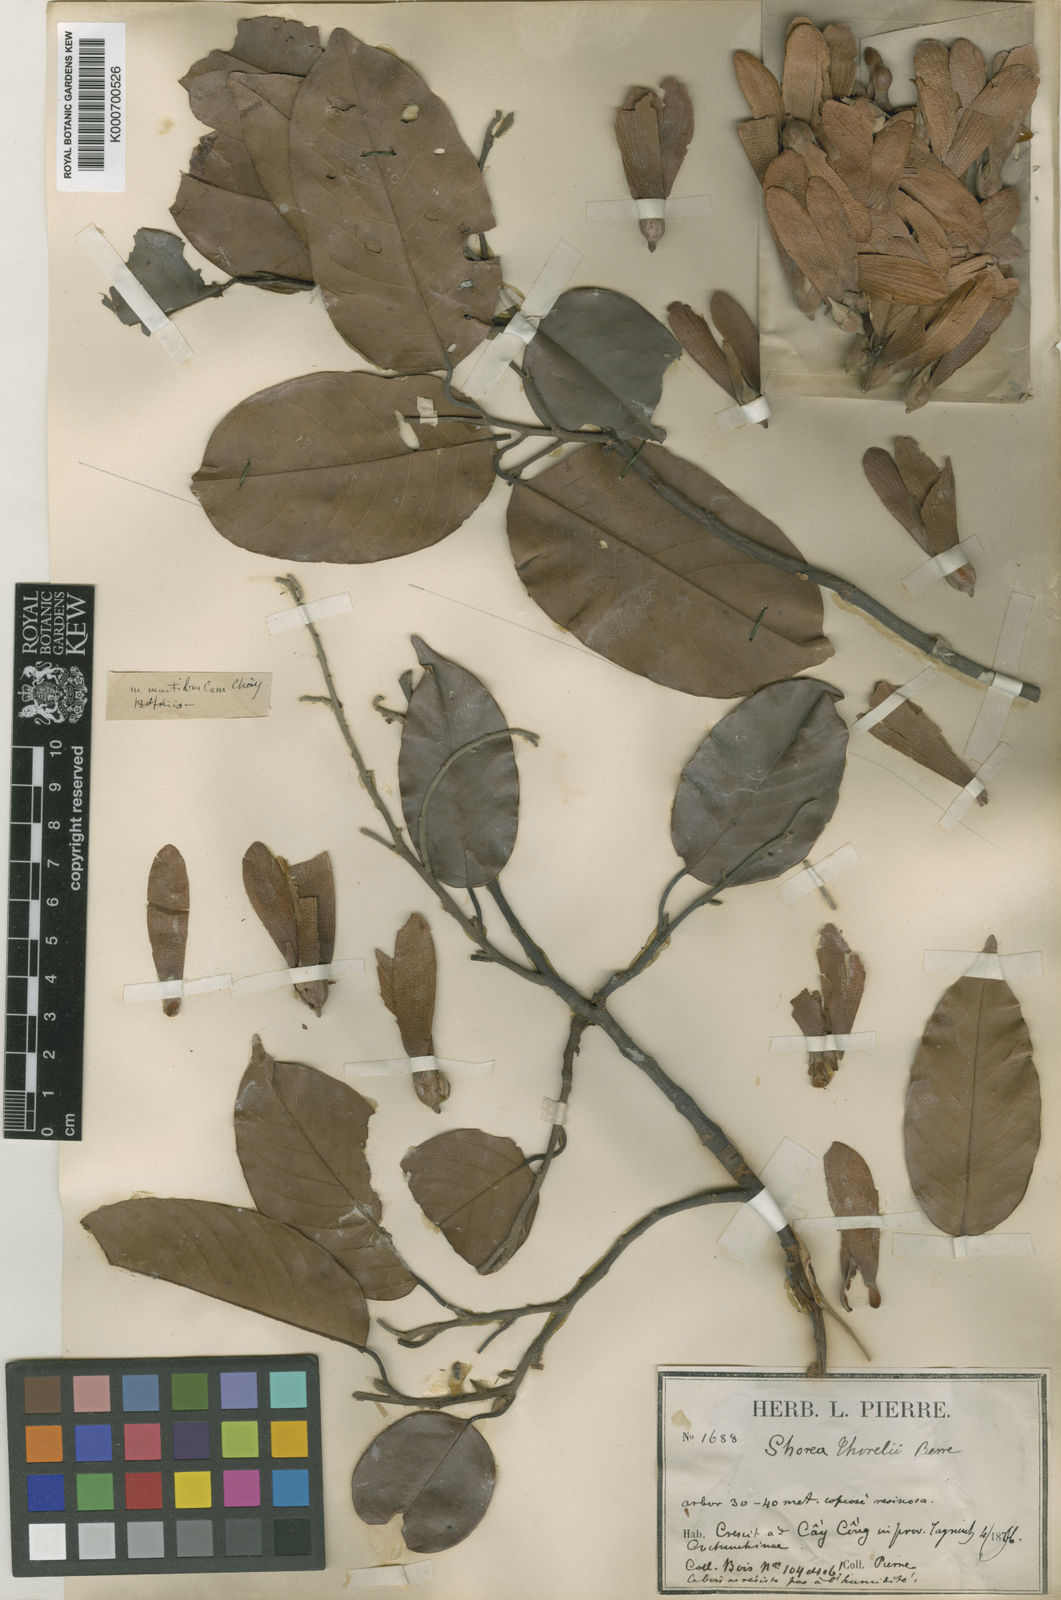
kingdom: Plantae
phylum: Tracheophyta
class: Magnoliopsida
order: Malvales
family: Dipterocarpaceae
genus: Shorea
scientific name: Shorea thorelii
